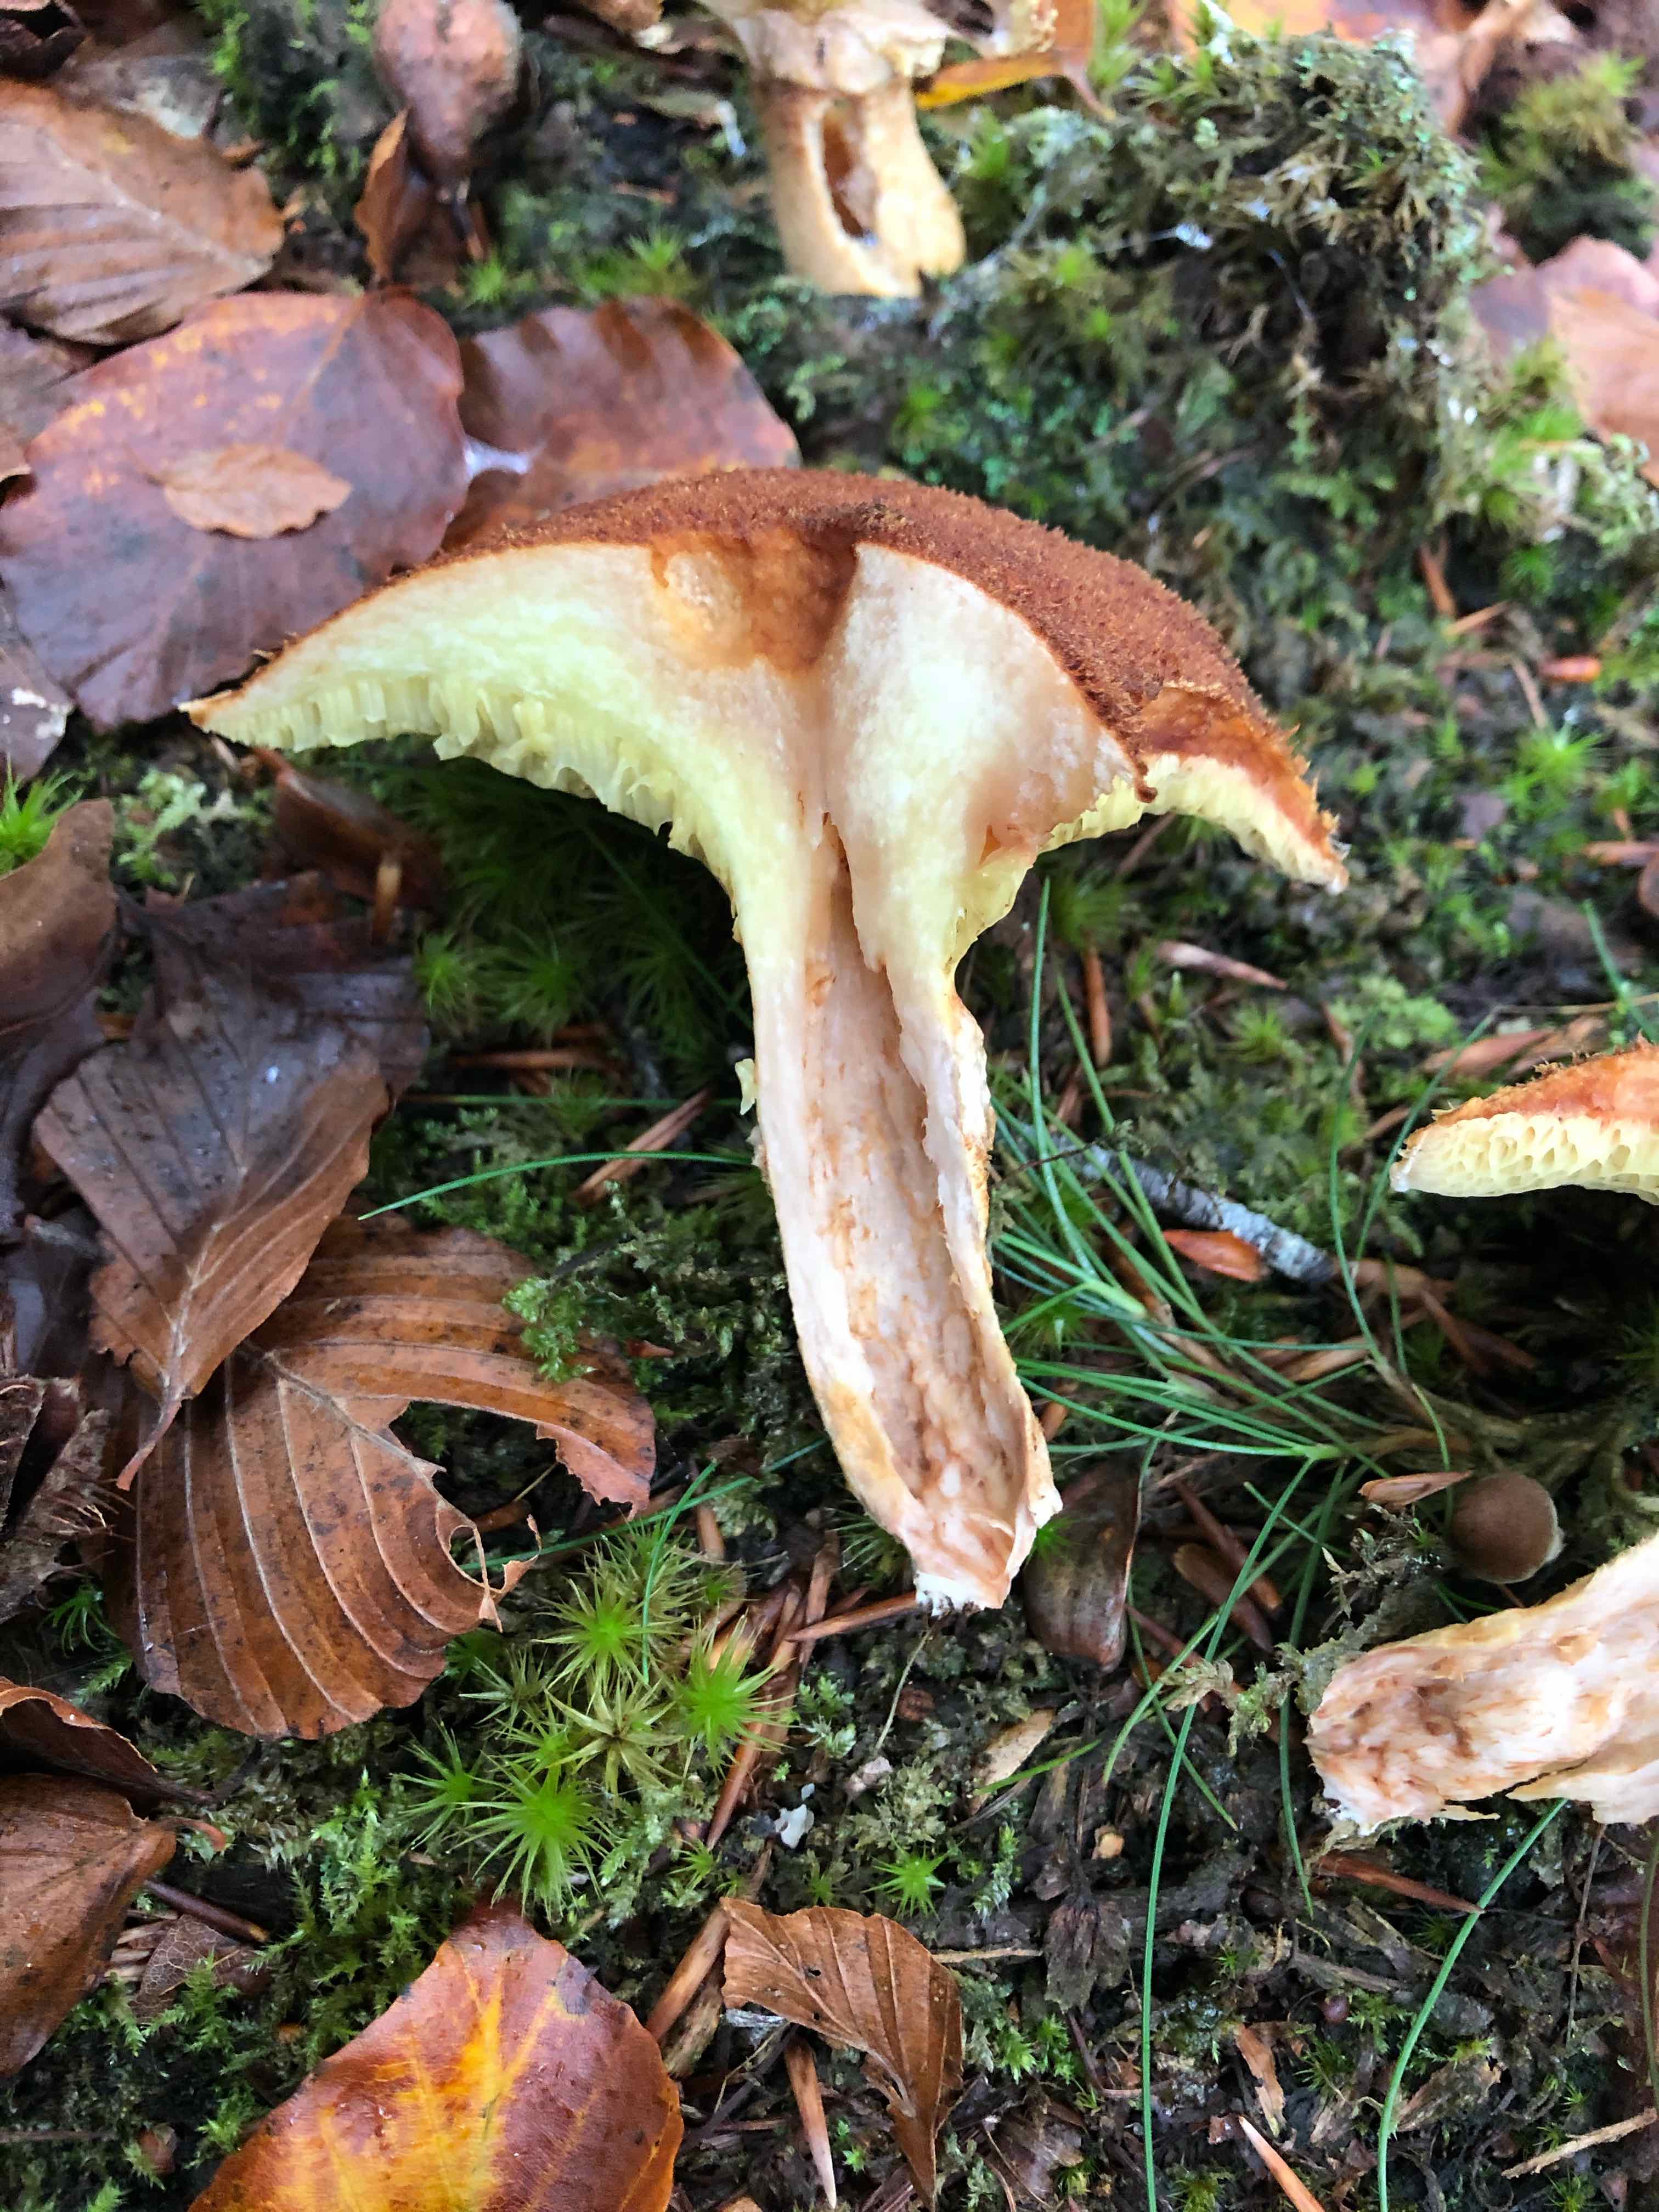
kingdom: Fungi
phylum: Basidiomycota
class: Agaricomycetes
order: Boletales
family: Suillaceae
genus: Suillus
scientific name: Suillus cavipes
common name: hulstokket slimrørhat
